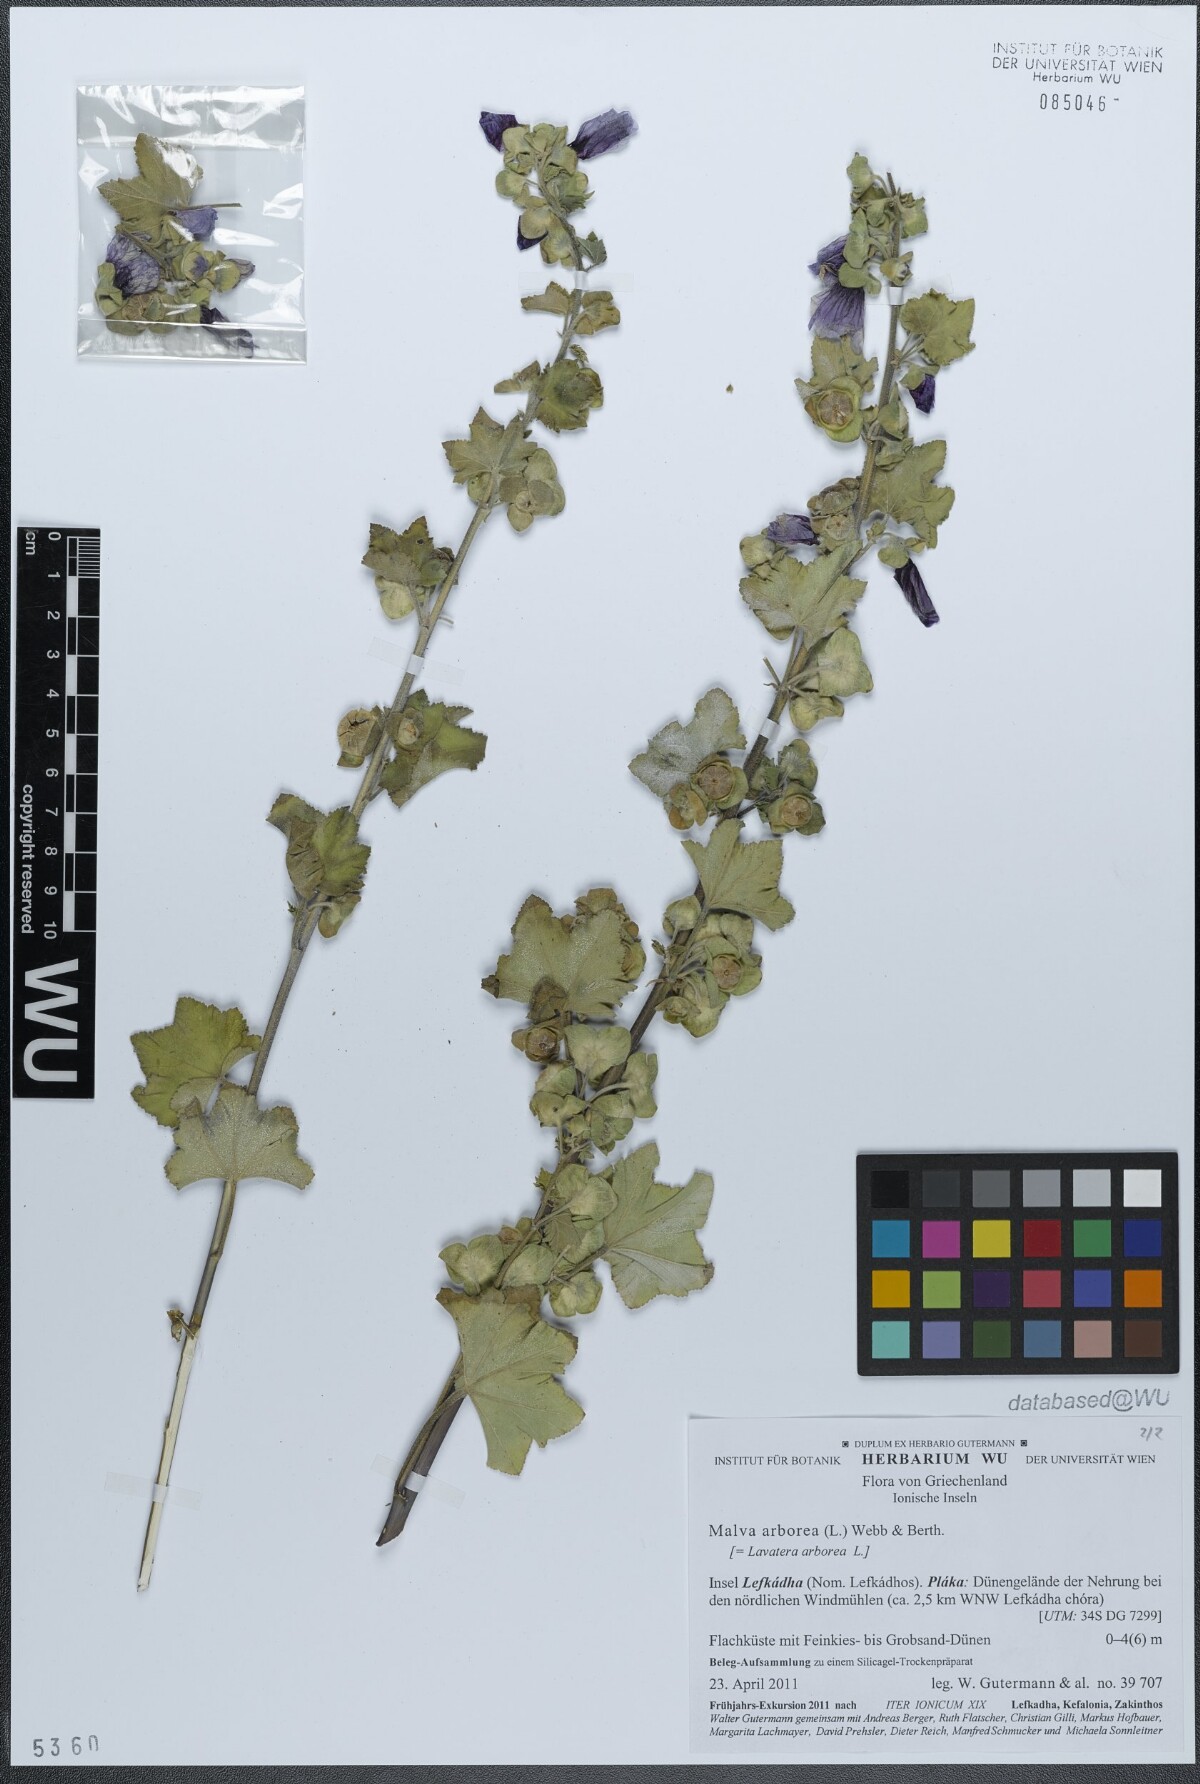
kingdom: Plantae
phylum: Tracheophyta
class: Magnoliopsida
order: Malvales
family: Malvaceae
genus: Malva
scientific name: Malva arborea
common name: Tree mallow
